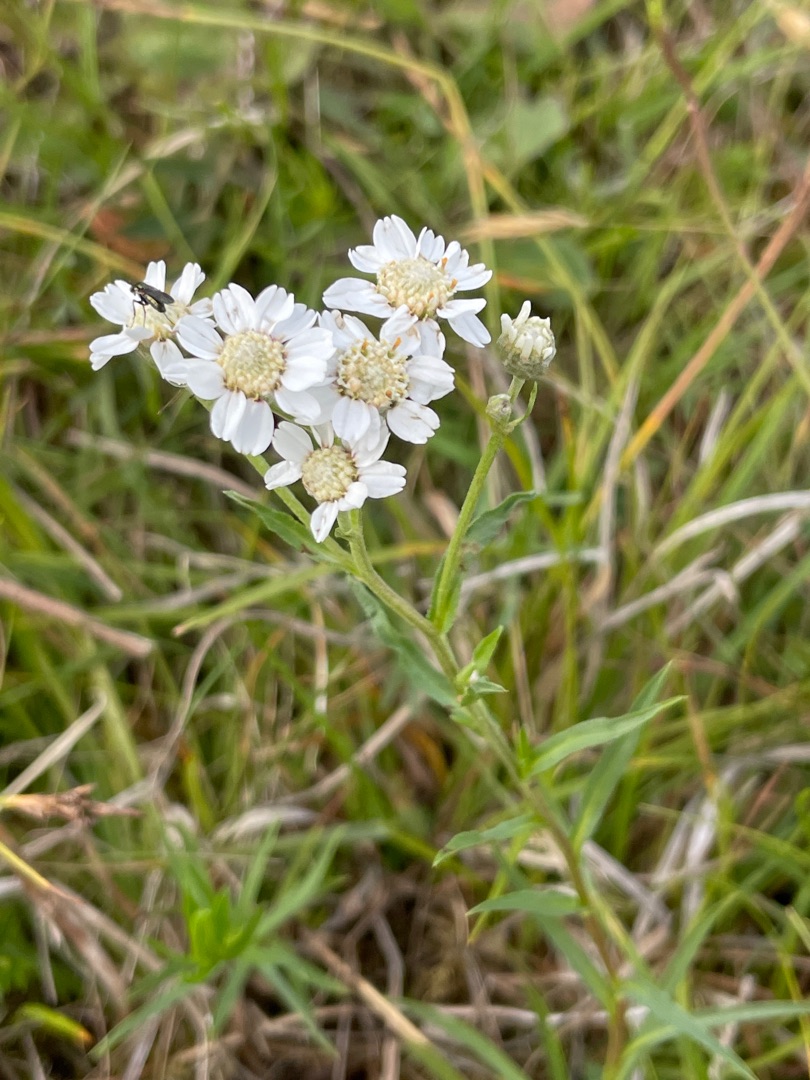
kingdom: Plantae
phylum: Tracheophyta
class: Magnoliopsida
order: Asterales
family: Asteraceae
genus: Achillea
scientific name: Achillea ptarmica
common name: Nyse-røllike
